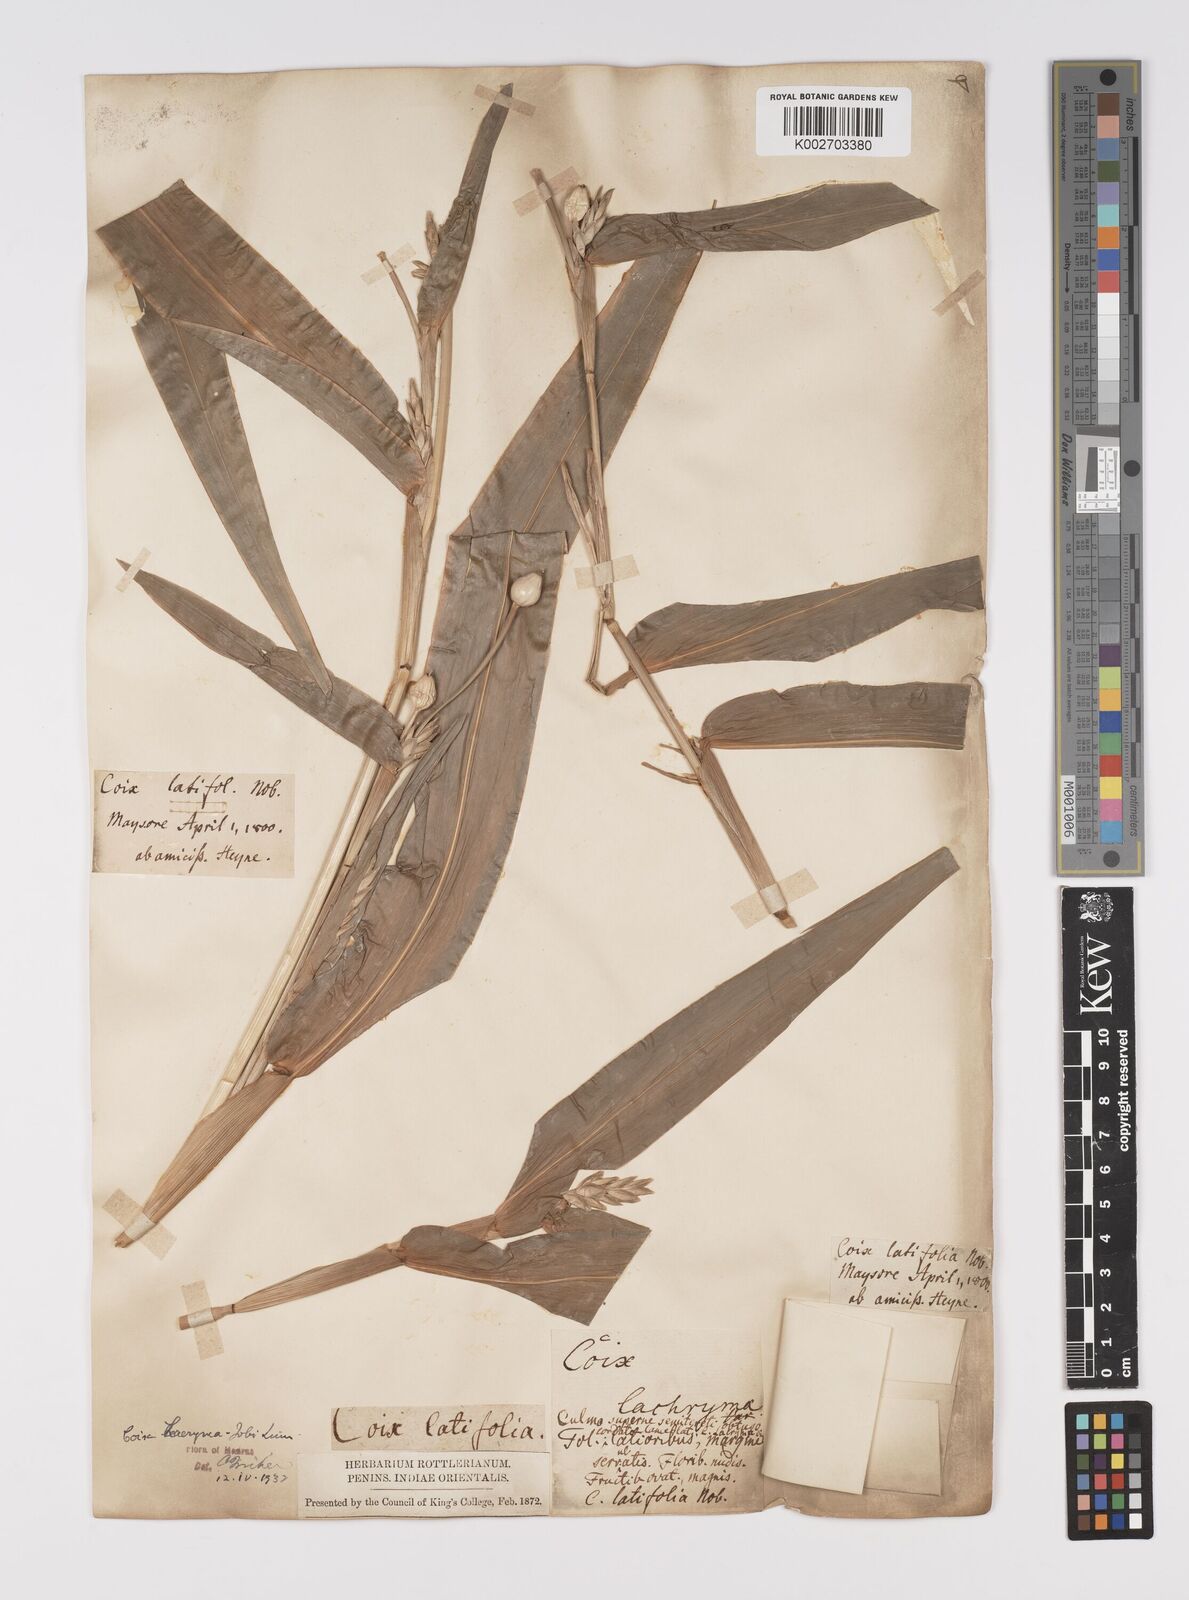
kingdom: Plantae
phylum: Tracheophyta
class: Liliopsida
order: Poales
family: Poaceae
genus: Coix
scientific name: Coix lacryma-jobi
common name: Job's tears
